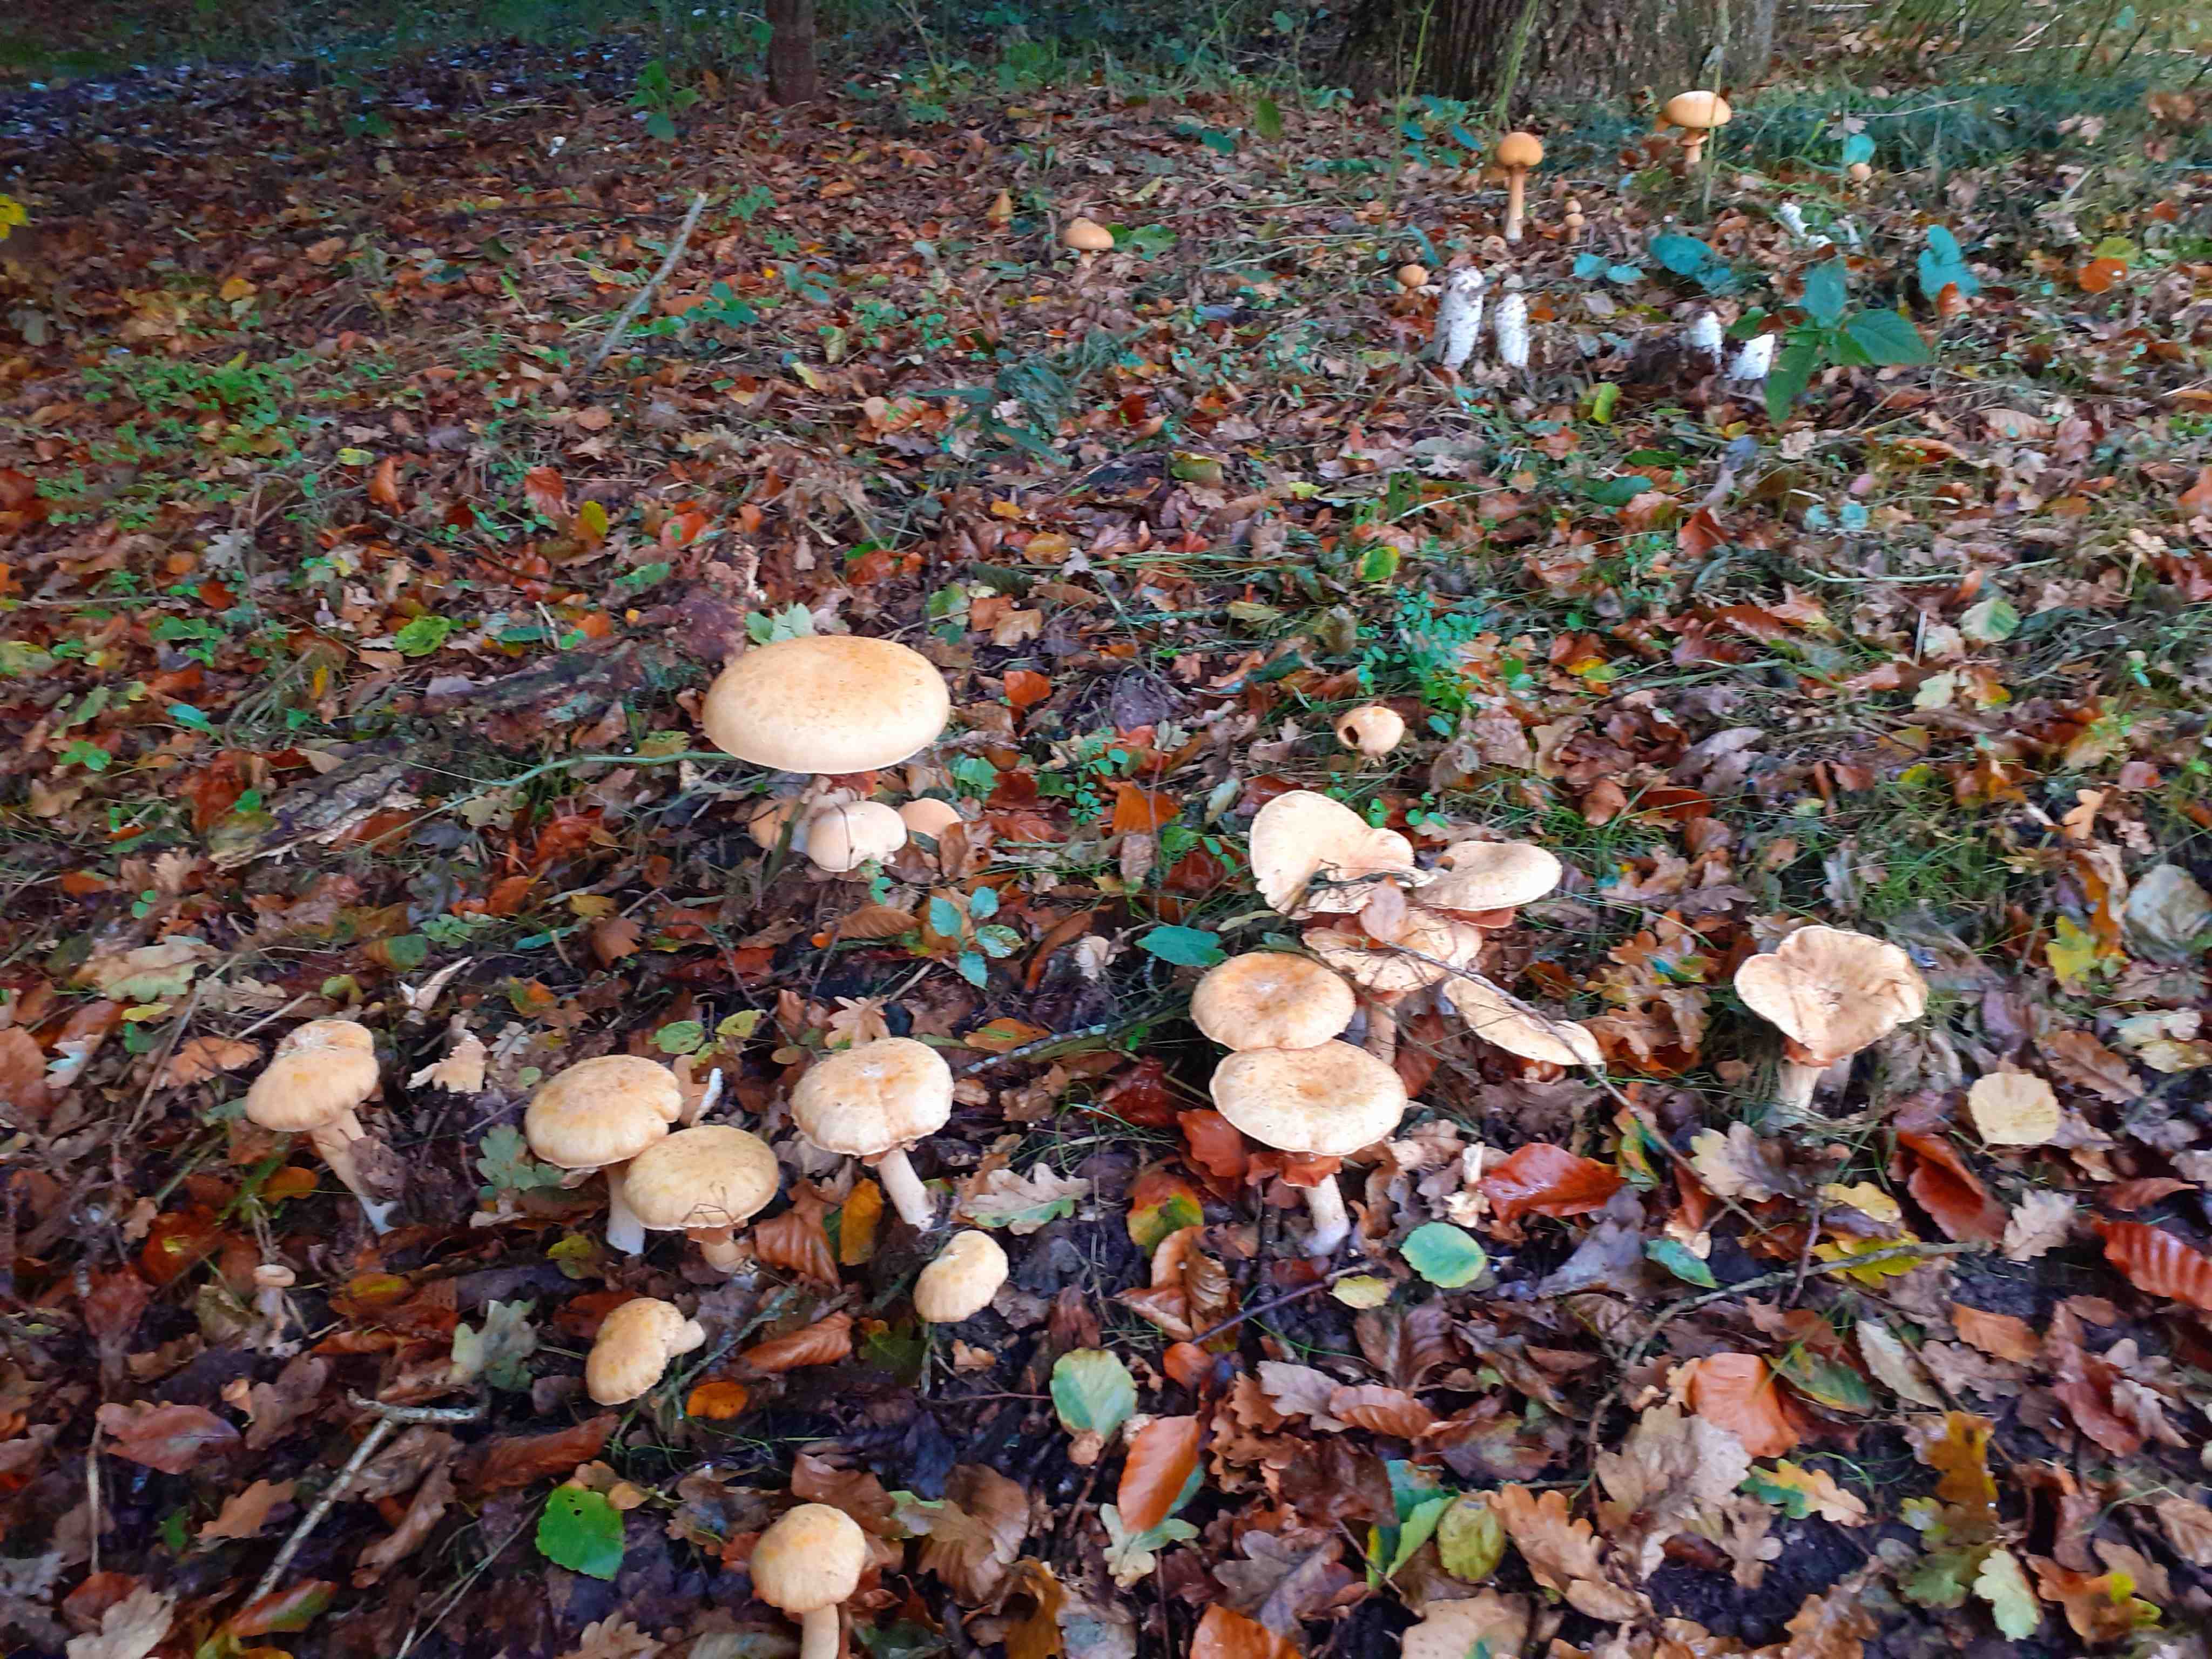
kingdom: Fungi
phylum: Basidiomycota
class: Agaricomycetes
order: Agaricales
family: Tricholomataceae
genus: Phaeolepiota
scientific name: Phaeolepiota aurea
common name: gyldenhat
